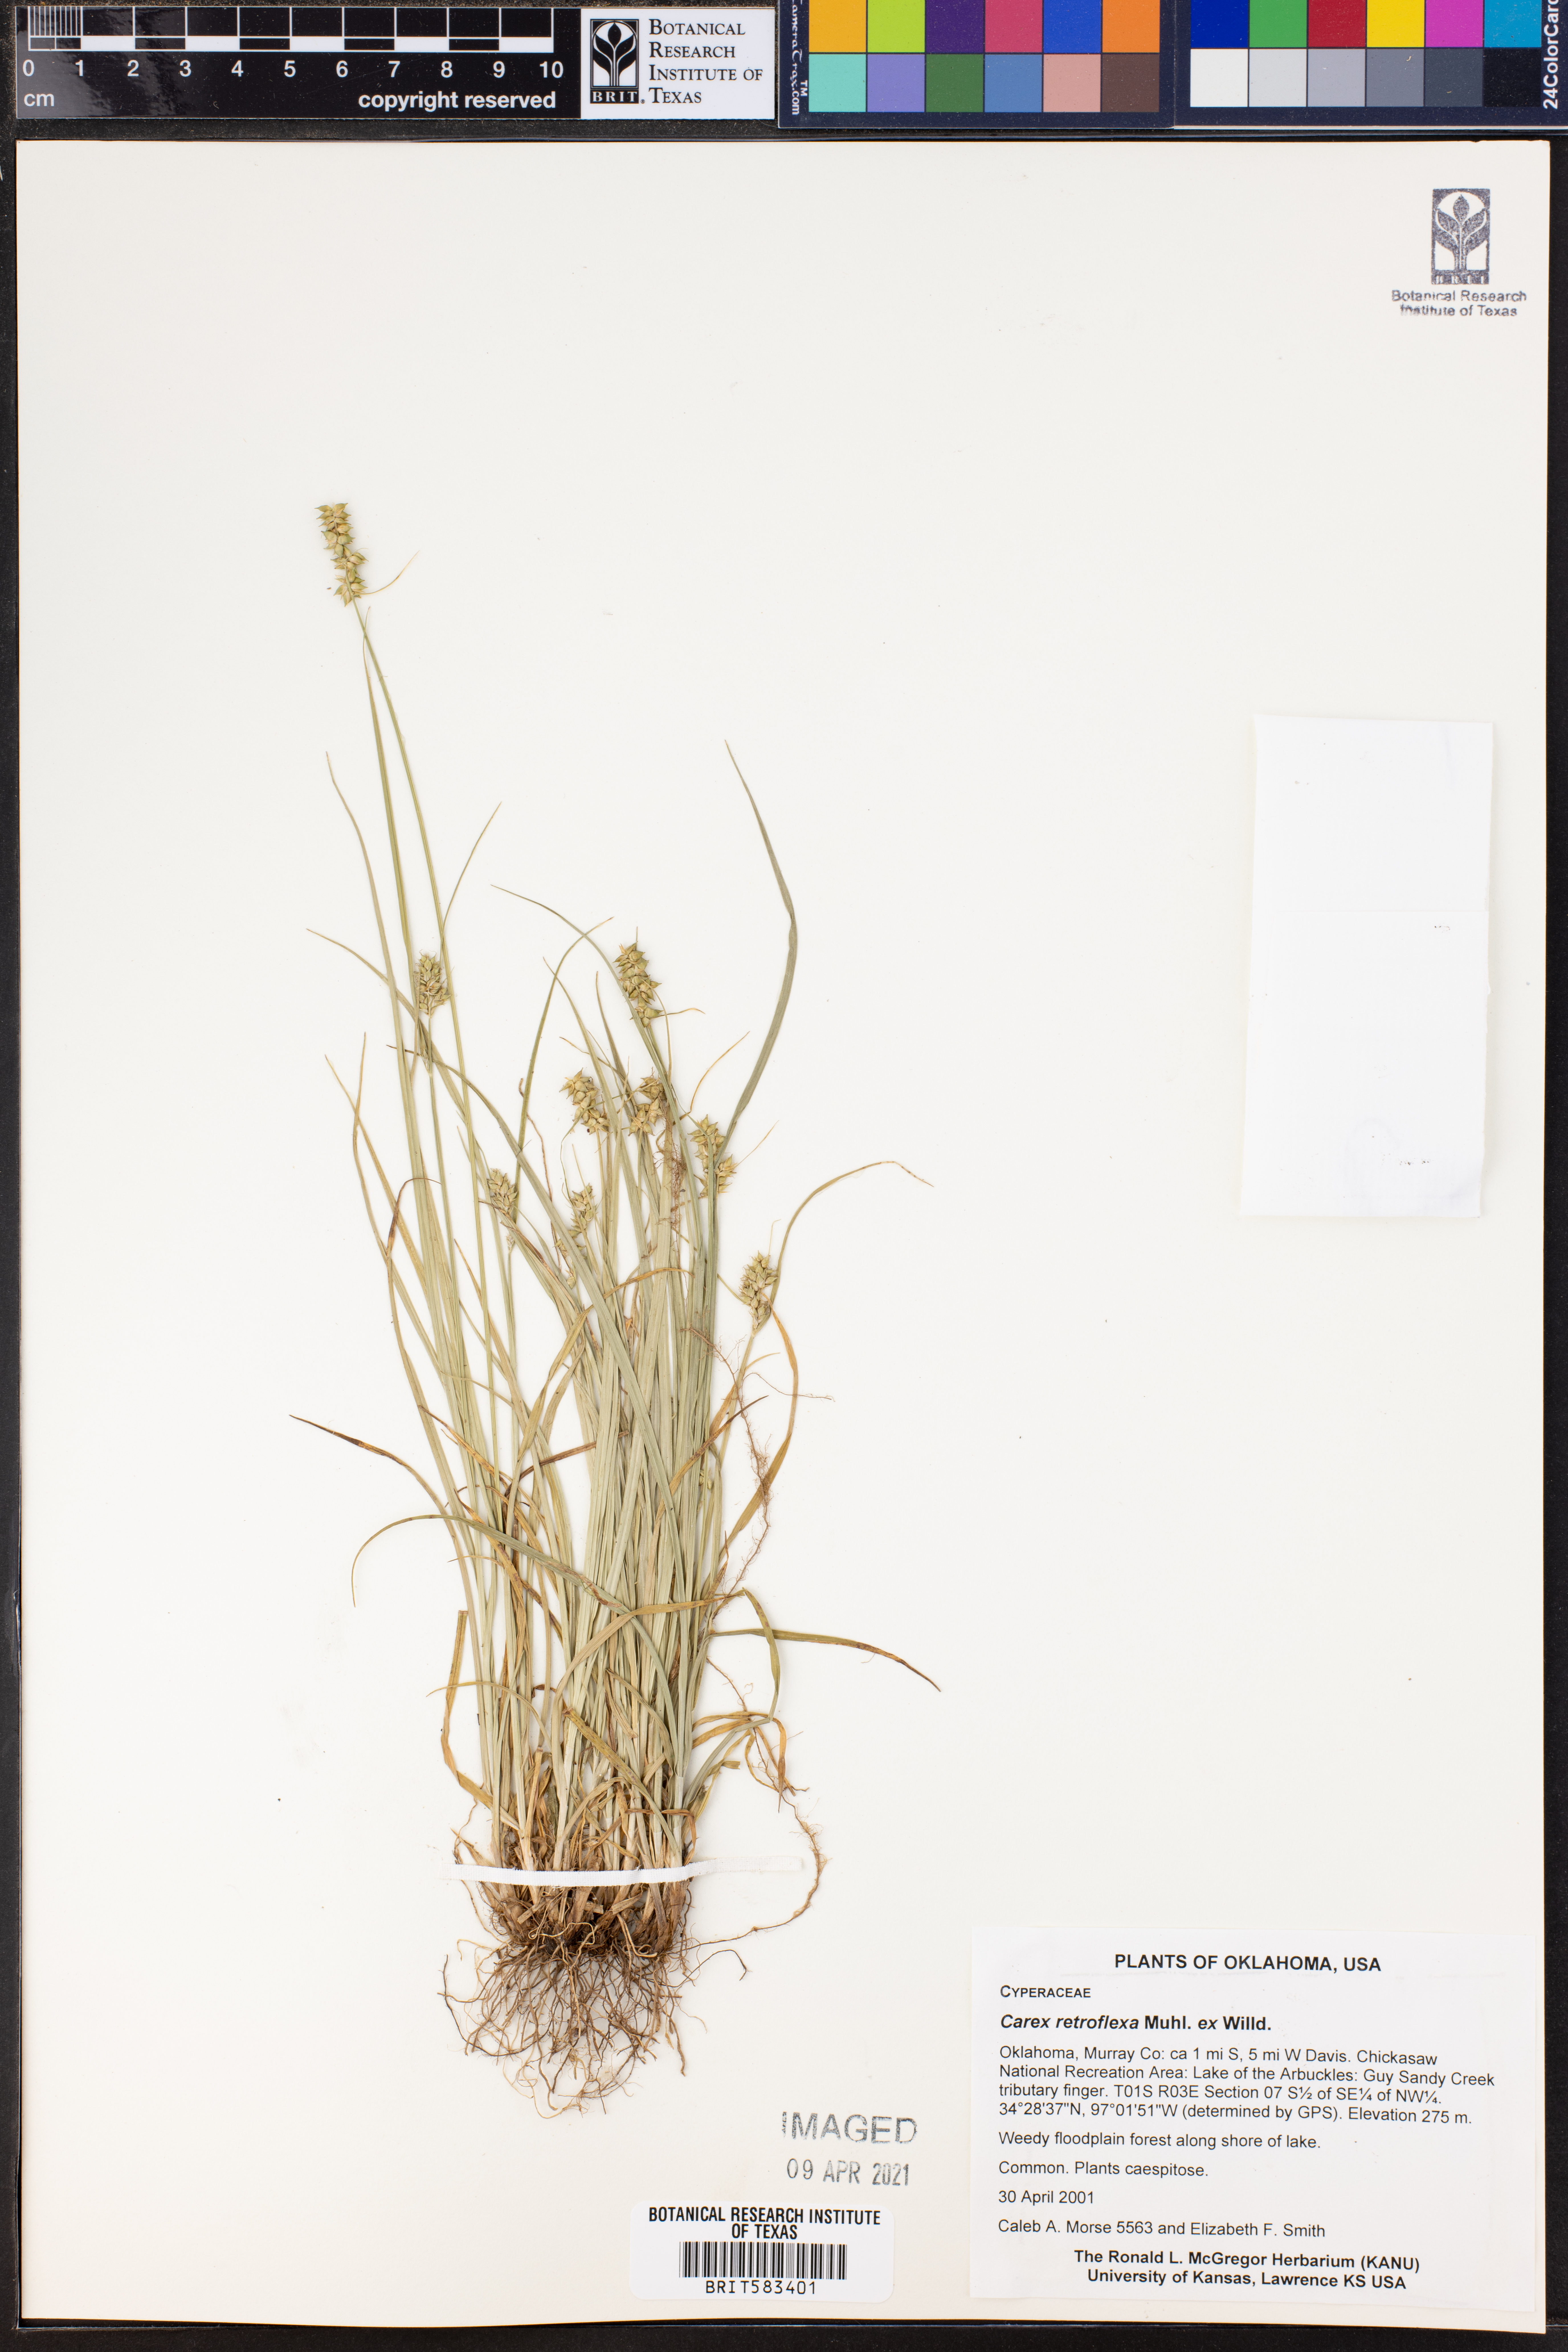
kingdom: Plantae
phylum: Tracheophyta
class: Liliopsida
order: Poales
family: Cyperaceae
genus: Carex
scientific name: Carex retroflexa
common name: Reflexed sedge
